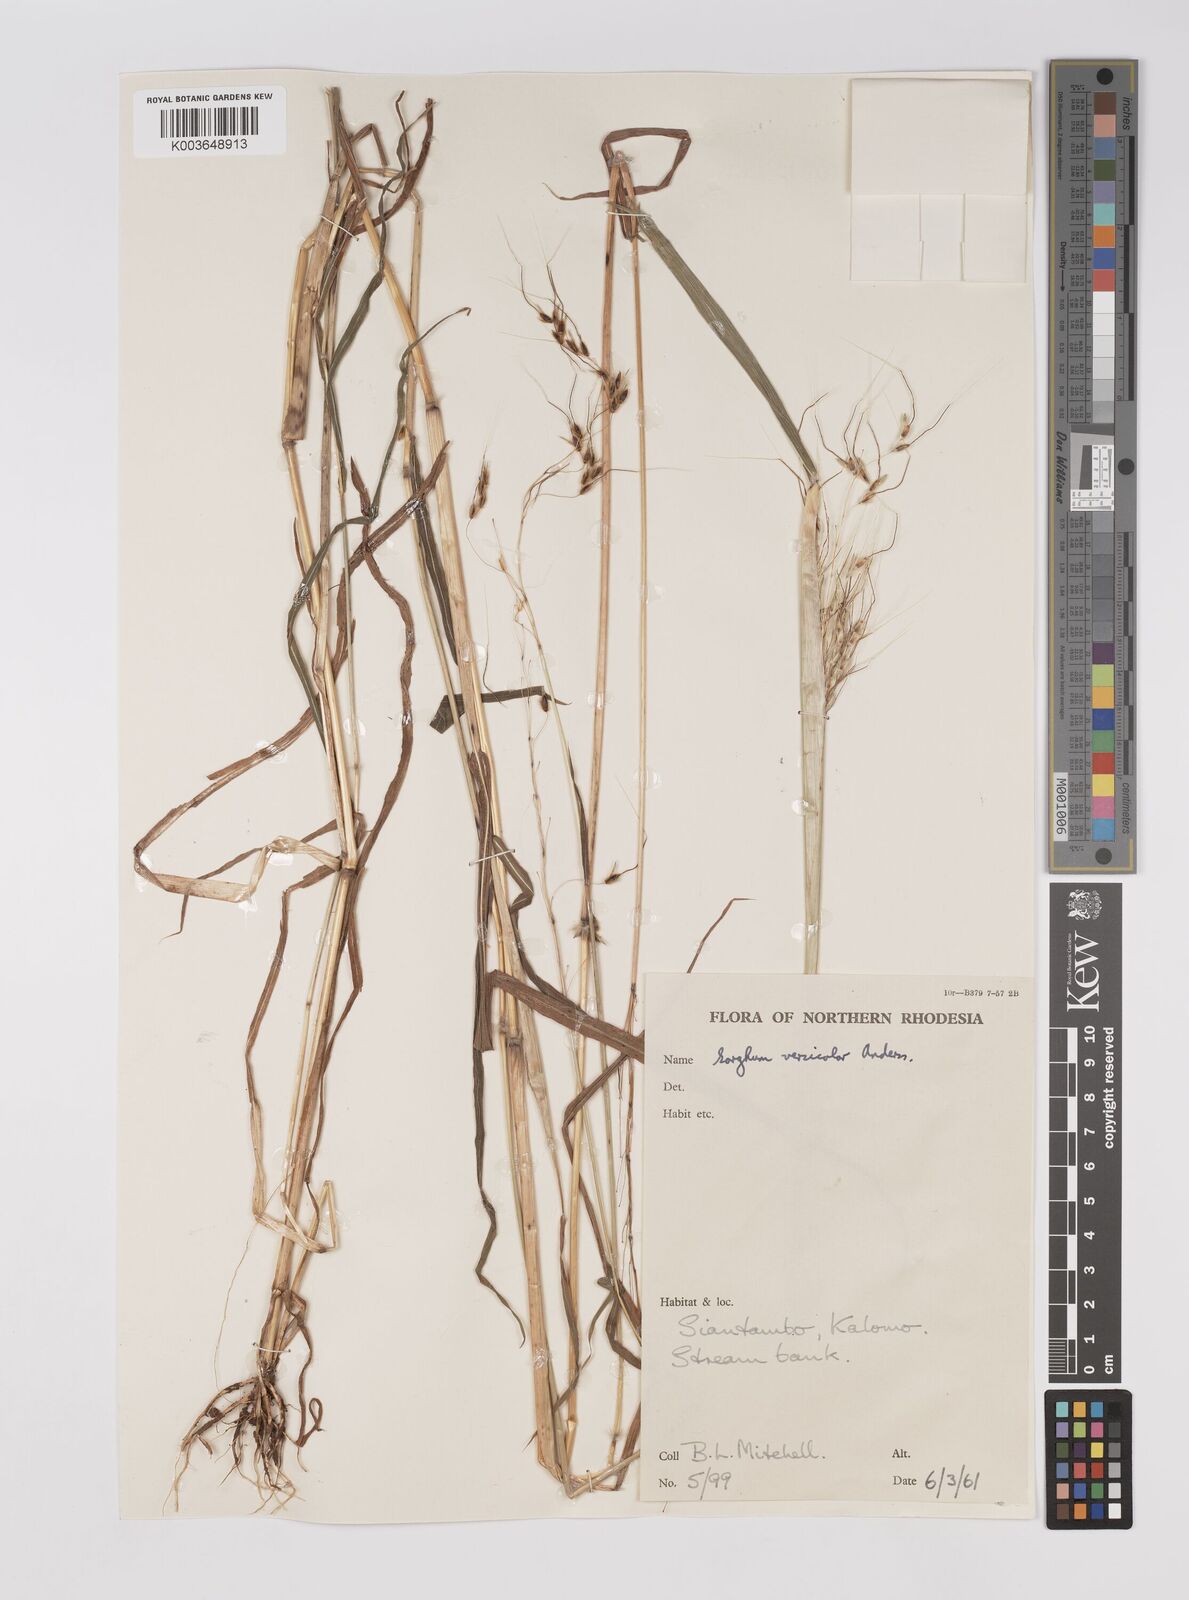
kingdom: Plantae
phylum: Tracheophyta
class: Liliopsida
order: Poales
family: Poaceae
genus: Sarga
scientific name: Sarga versicolor
